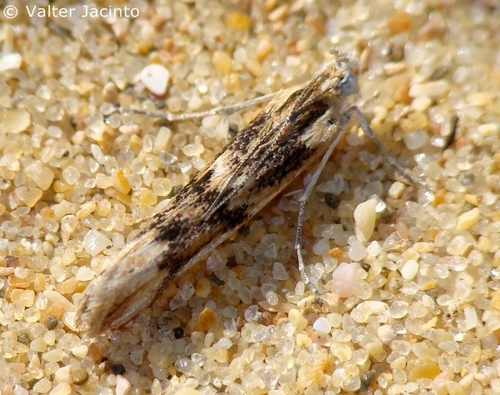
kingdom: Animalia
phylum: Arthropoda
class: Insecta
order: Lepidoptera
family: Pyralidae
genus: Ancylosis
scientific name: Ancylosis arenosella
